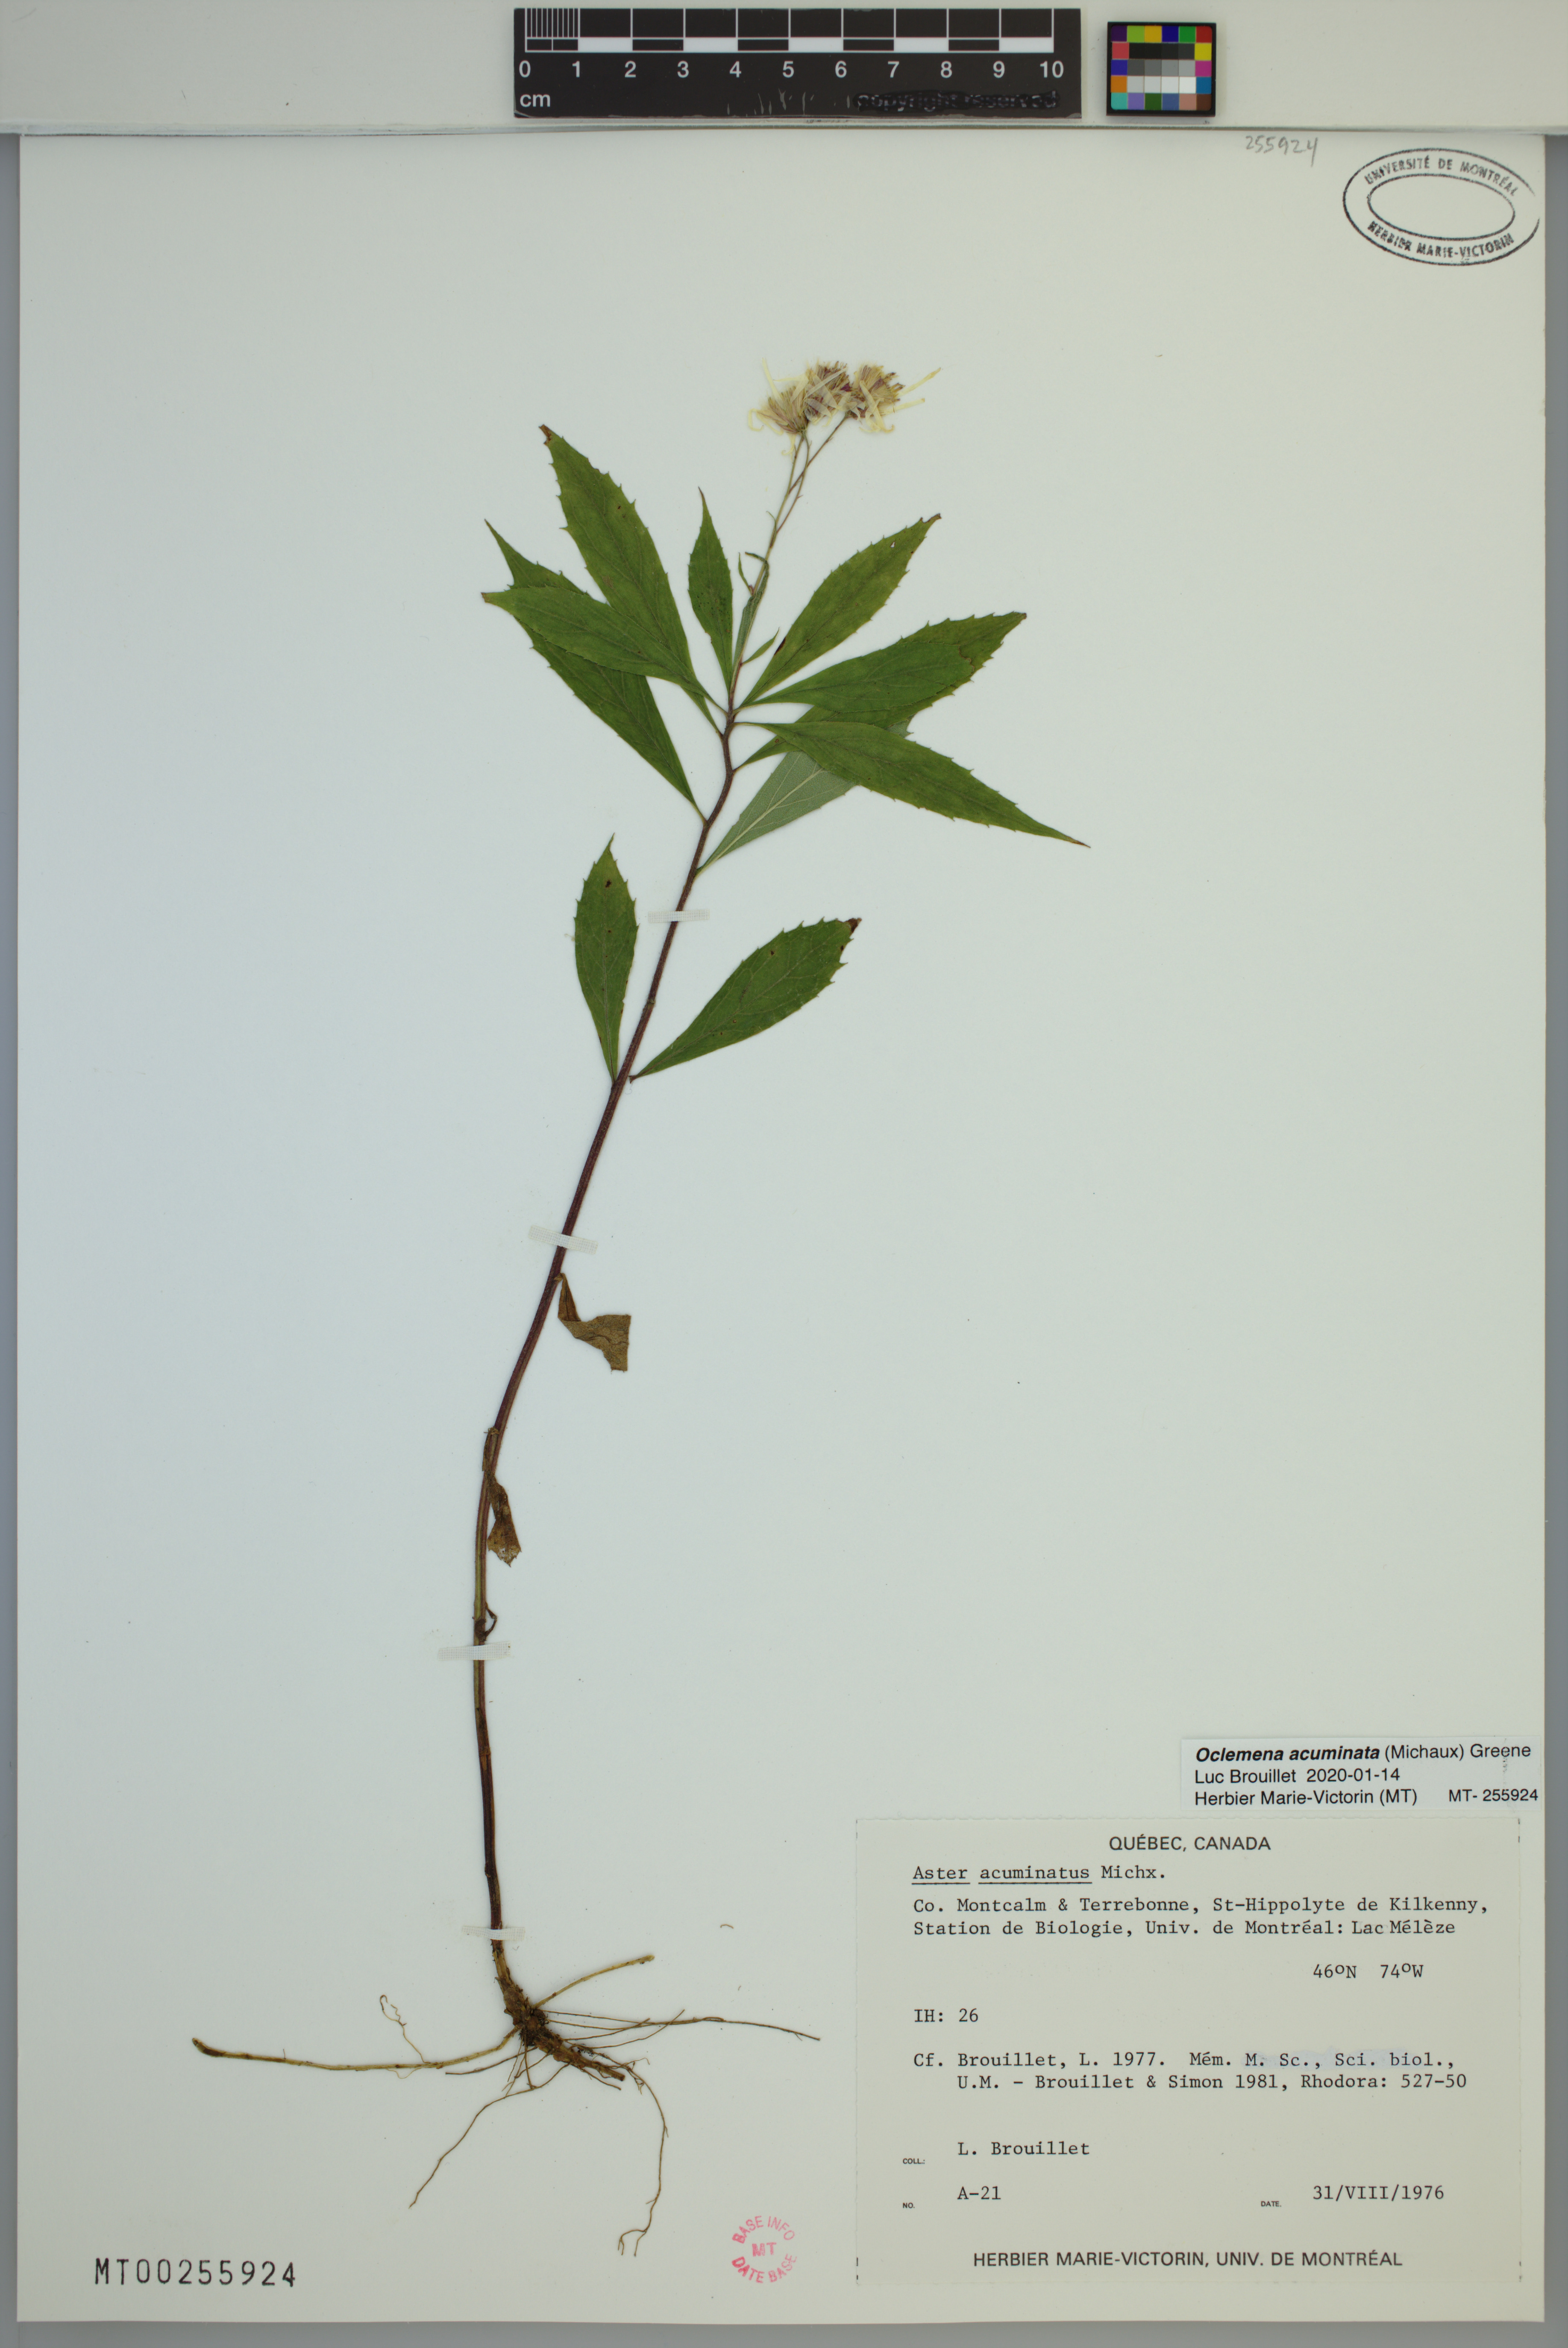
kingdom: Plantae
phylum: Tracheophyta
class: Magnoliopsida
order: Asterales
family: Asteraceae
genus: Oclemena
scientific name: Oclemena acuminata
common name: Mountain aster
